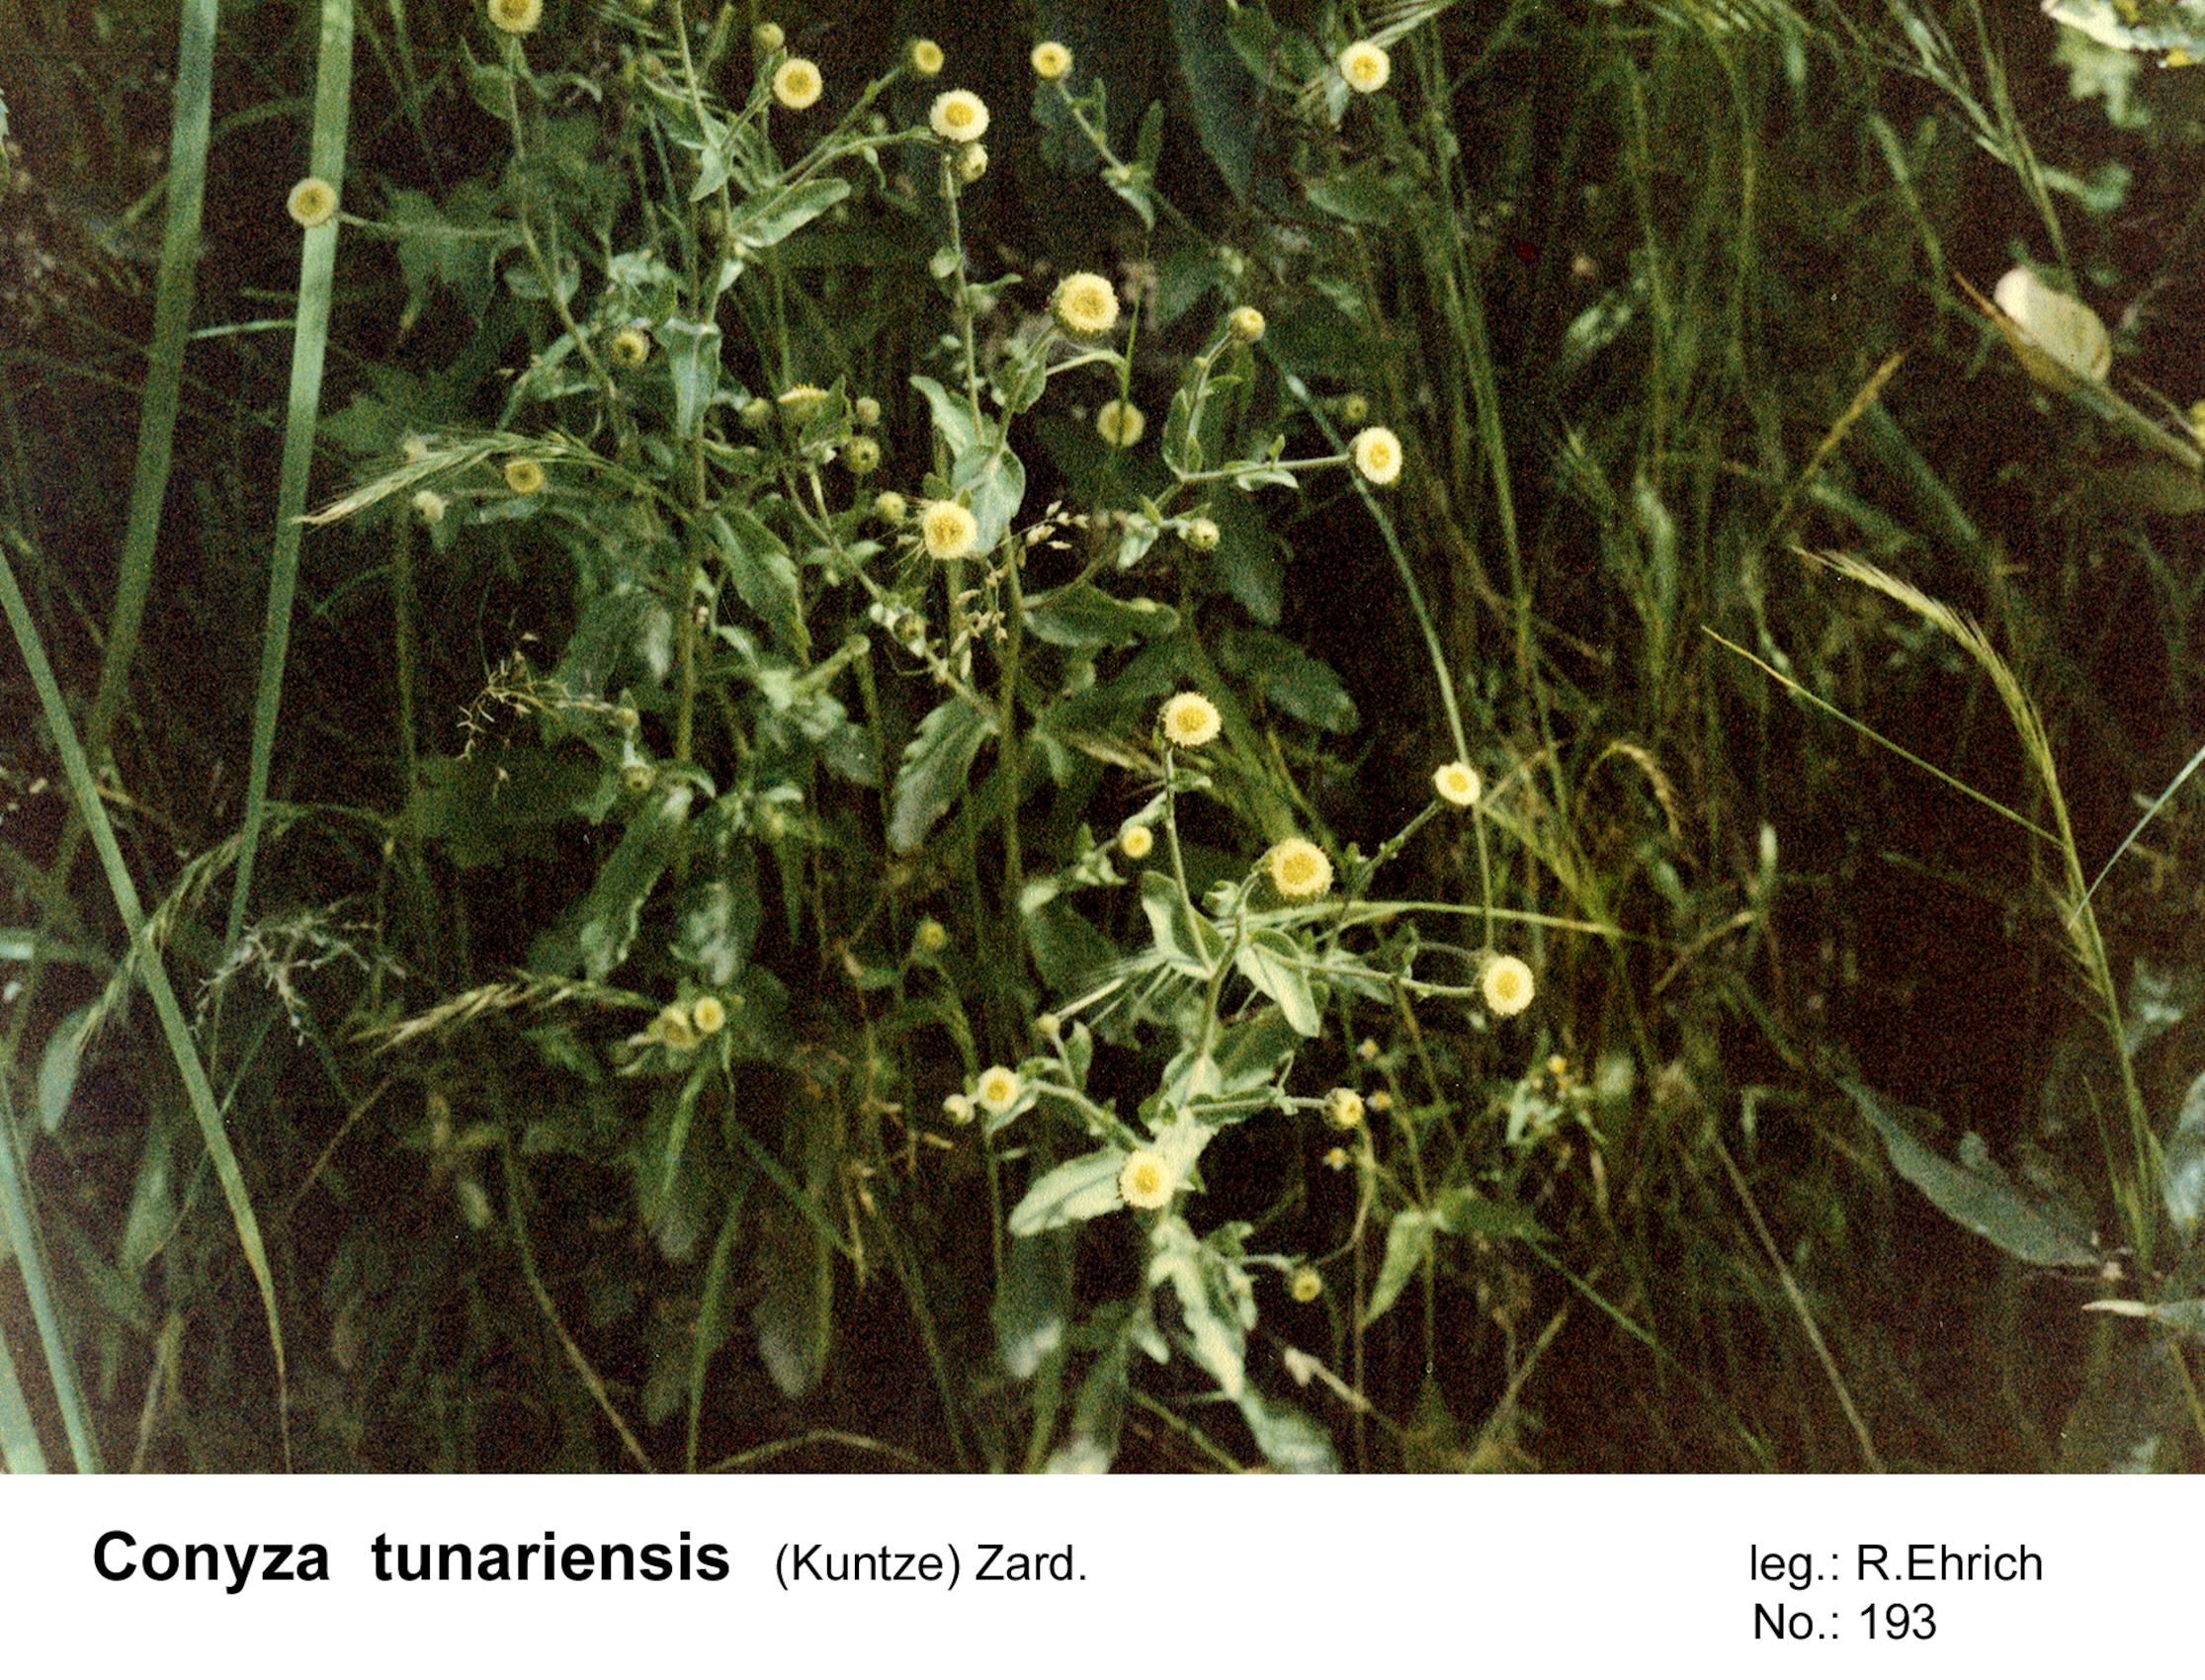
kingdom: Plantae
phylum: Tracheophyta
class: Magnoliopsida
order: Asterales
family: Asteraceae
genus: Erigeron
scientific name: Erigeron tunariensis
